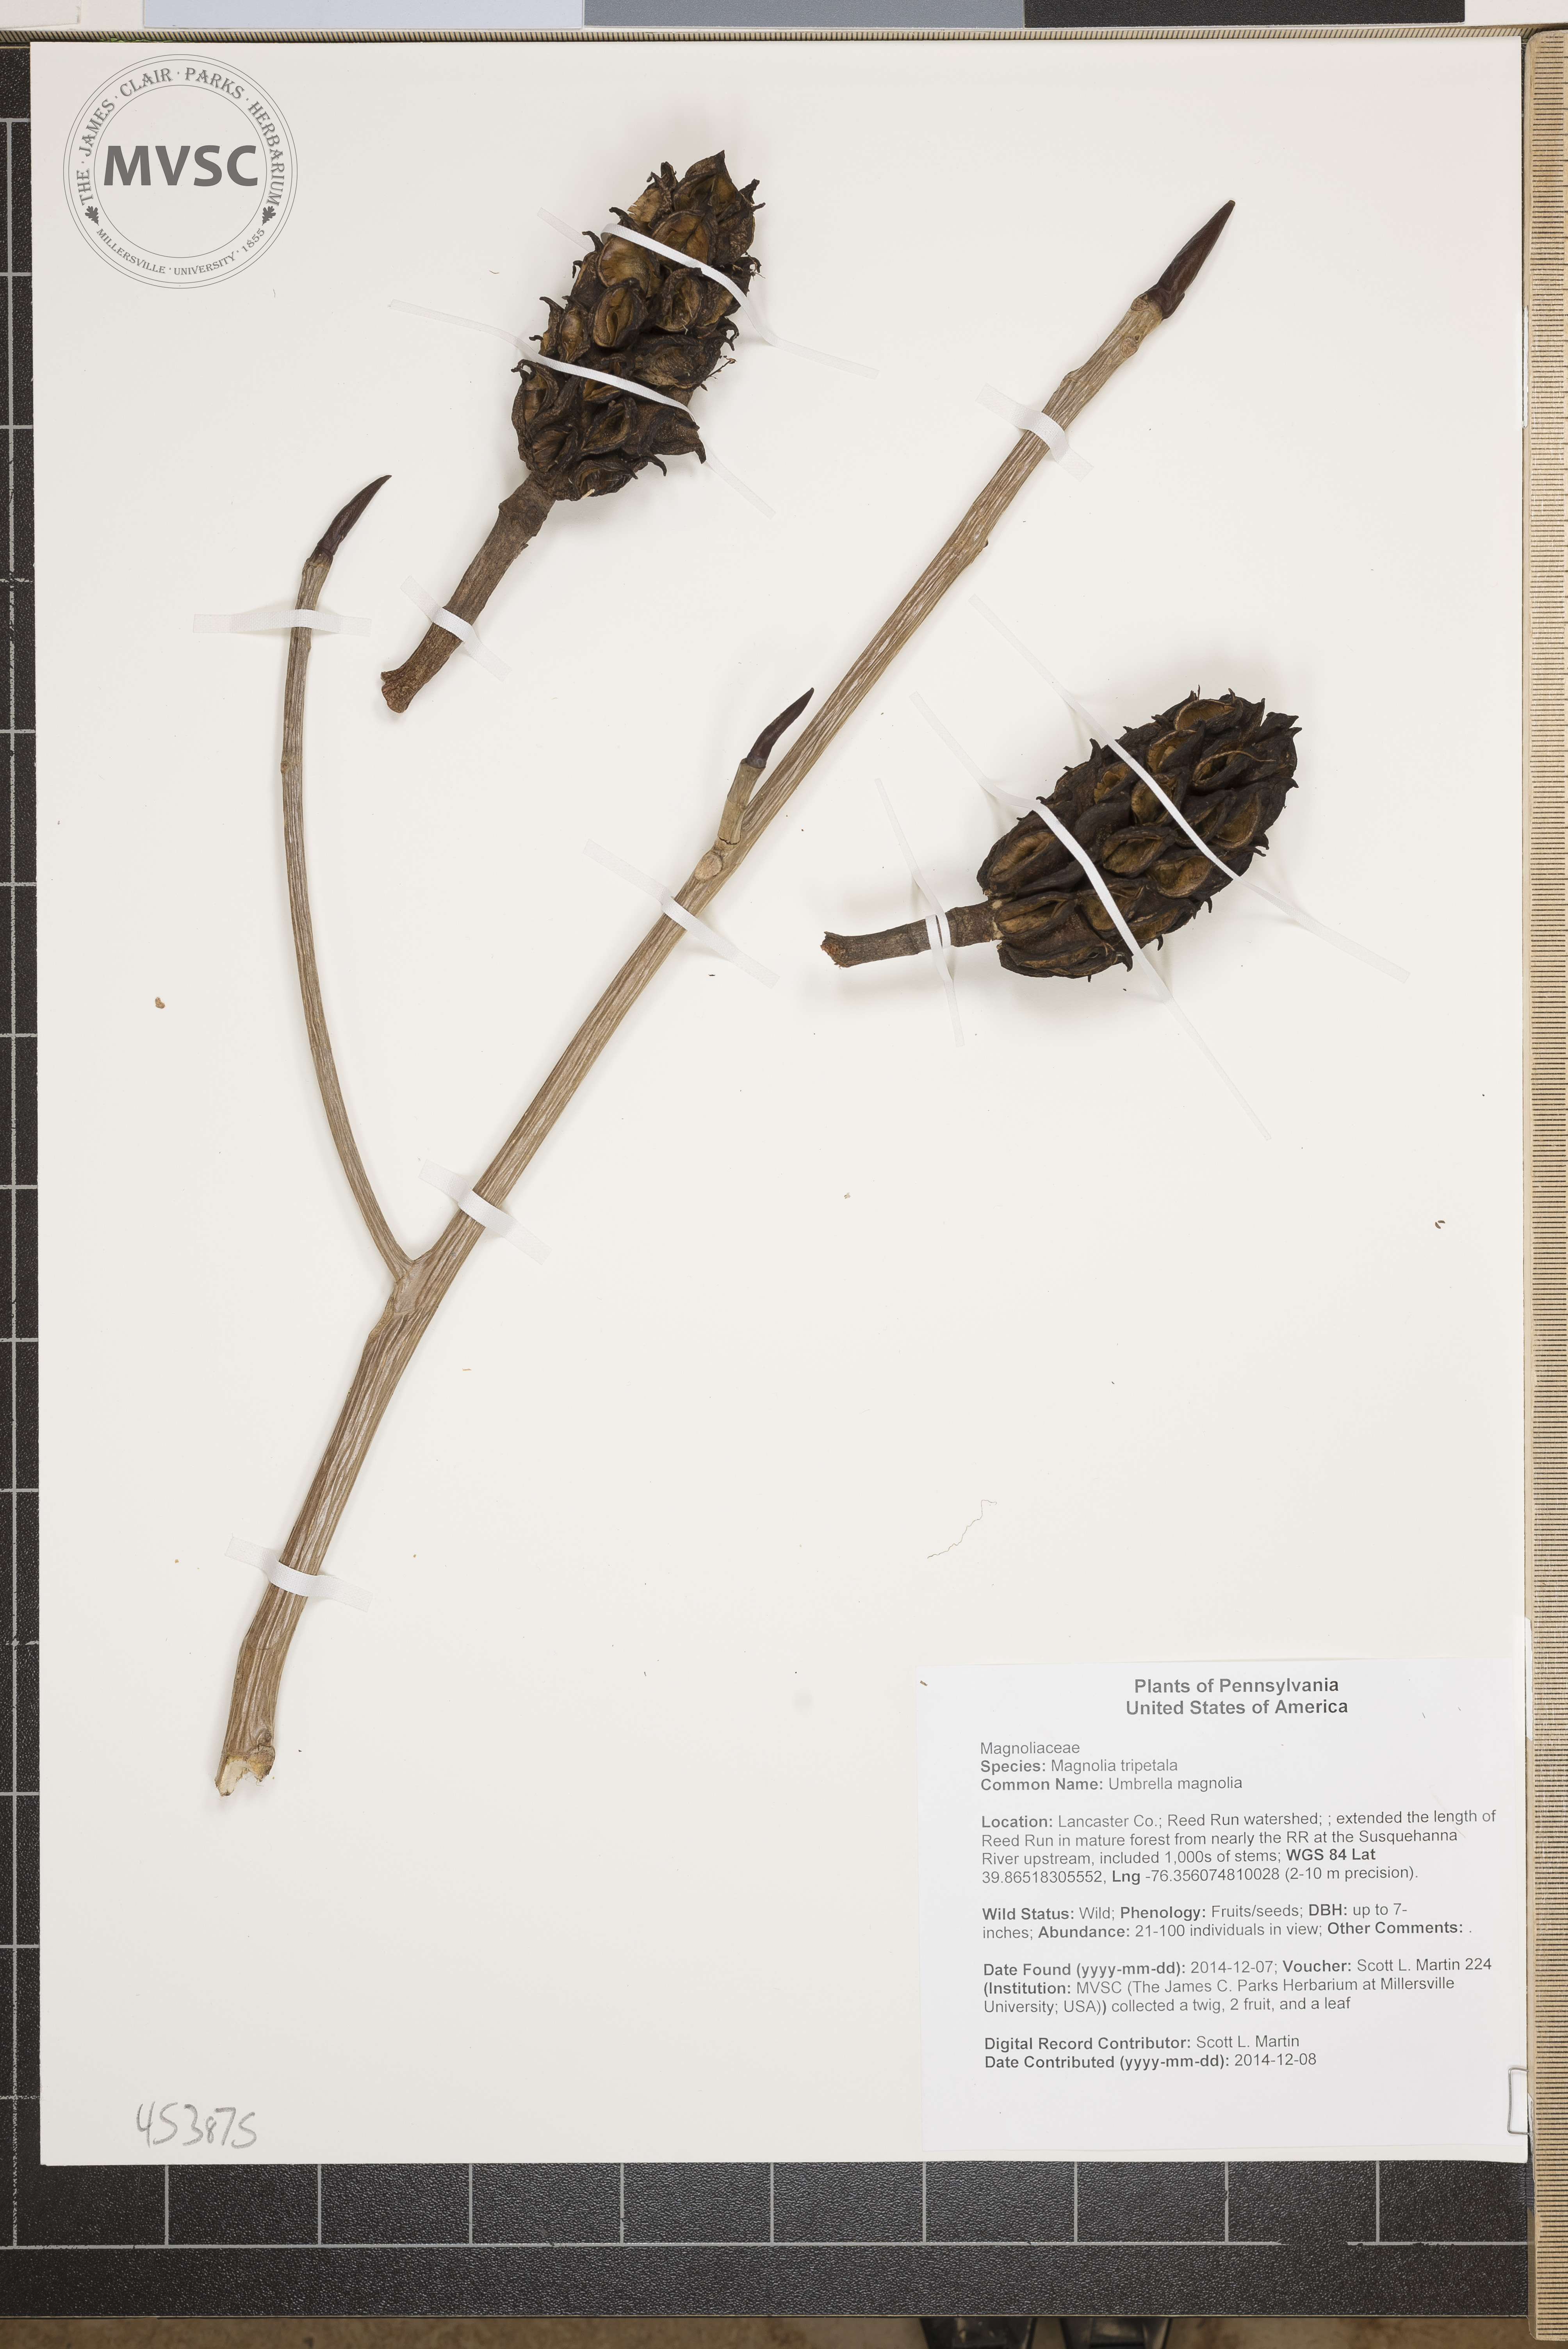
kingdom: Plantae
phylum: Tracheophyta
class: Magnoliopsida
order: Magnoliales
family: Magnoliaceae
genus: Magnolia
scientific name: Magnolia tripetala
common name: Umbrella magnolia
